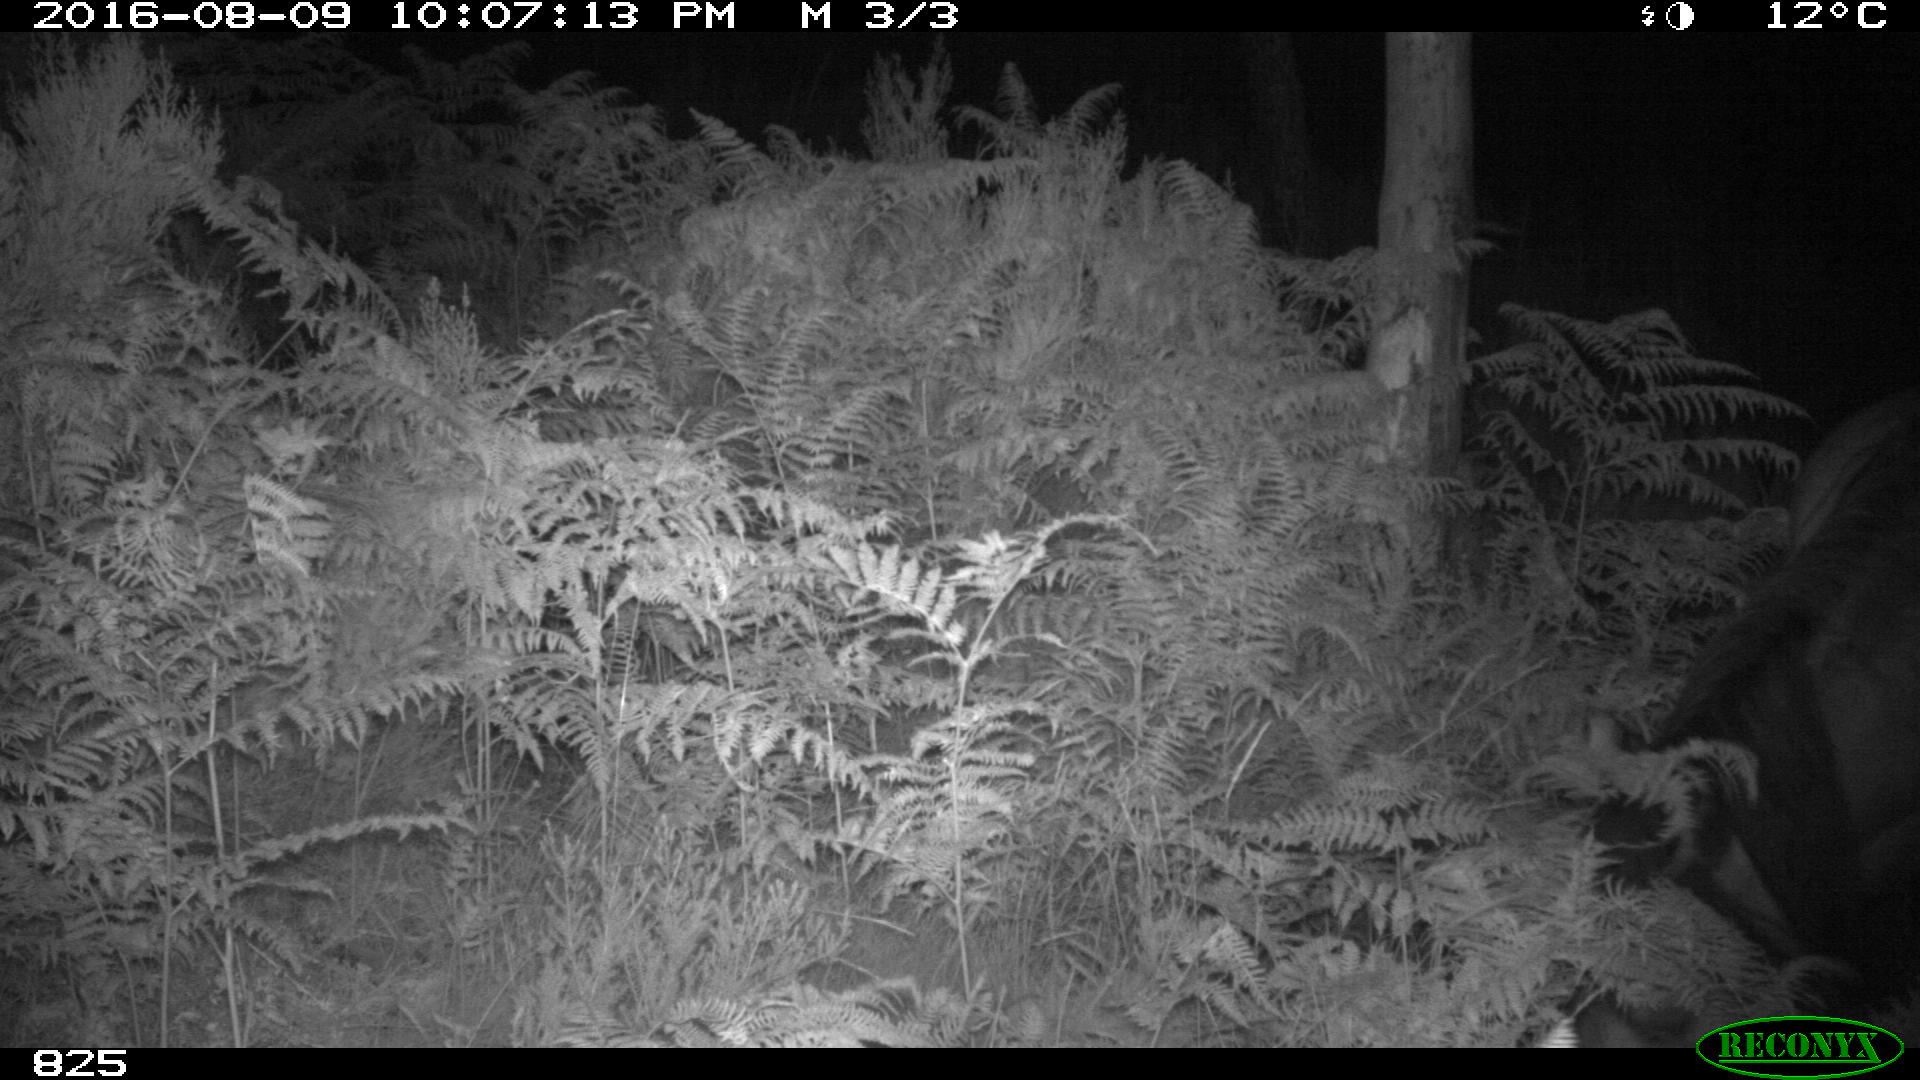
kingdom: Animalia
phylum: Chordata
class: Mammalia
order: Perissodactyla
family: Equidae
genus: Equus
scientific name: Equus caballus
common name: Horse
